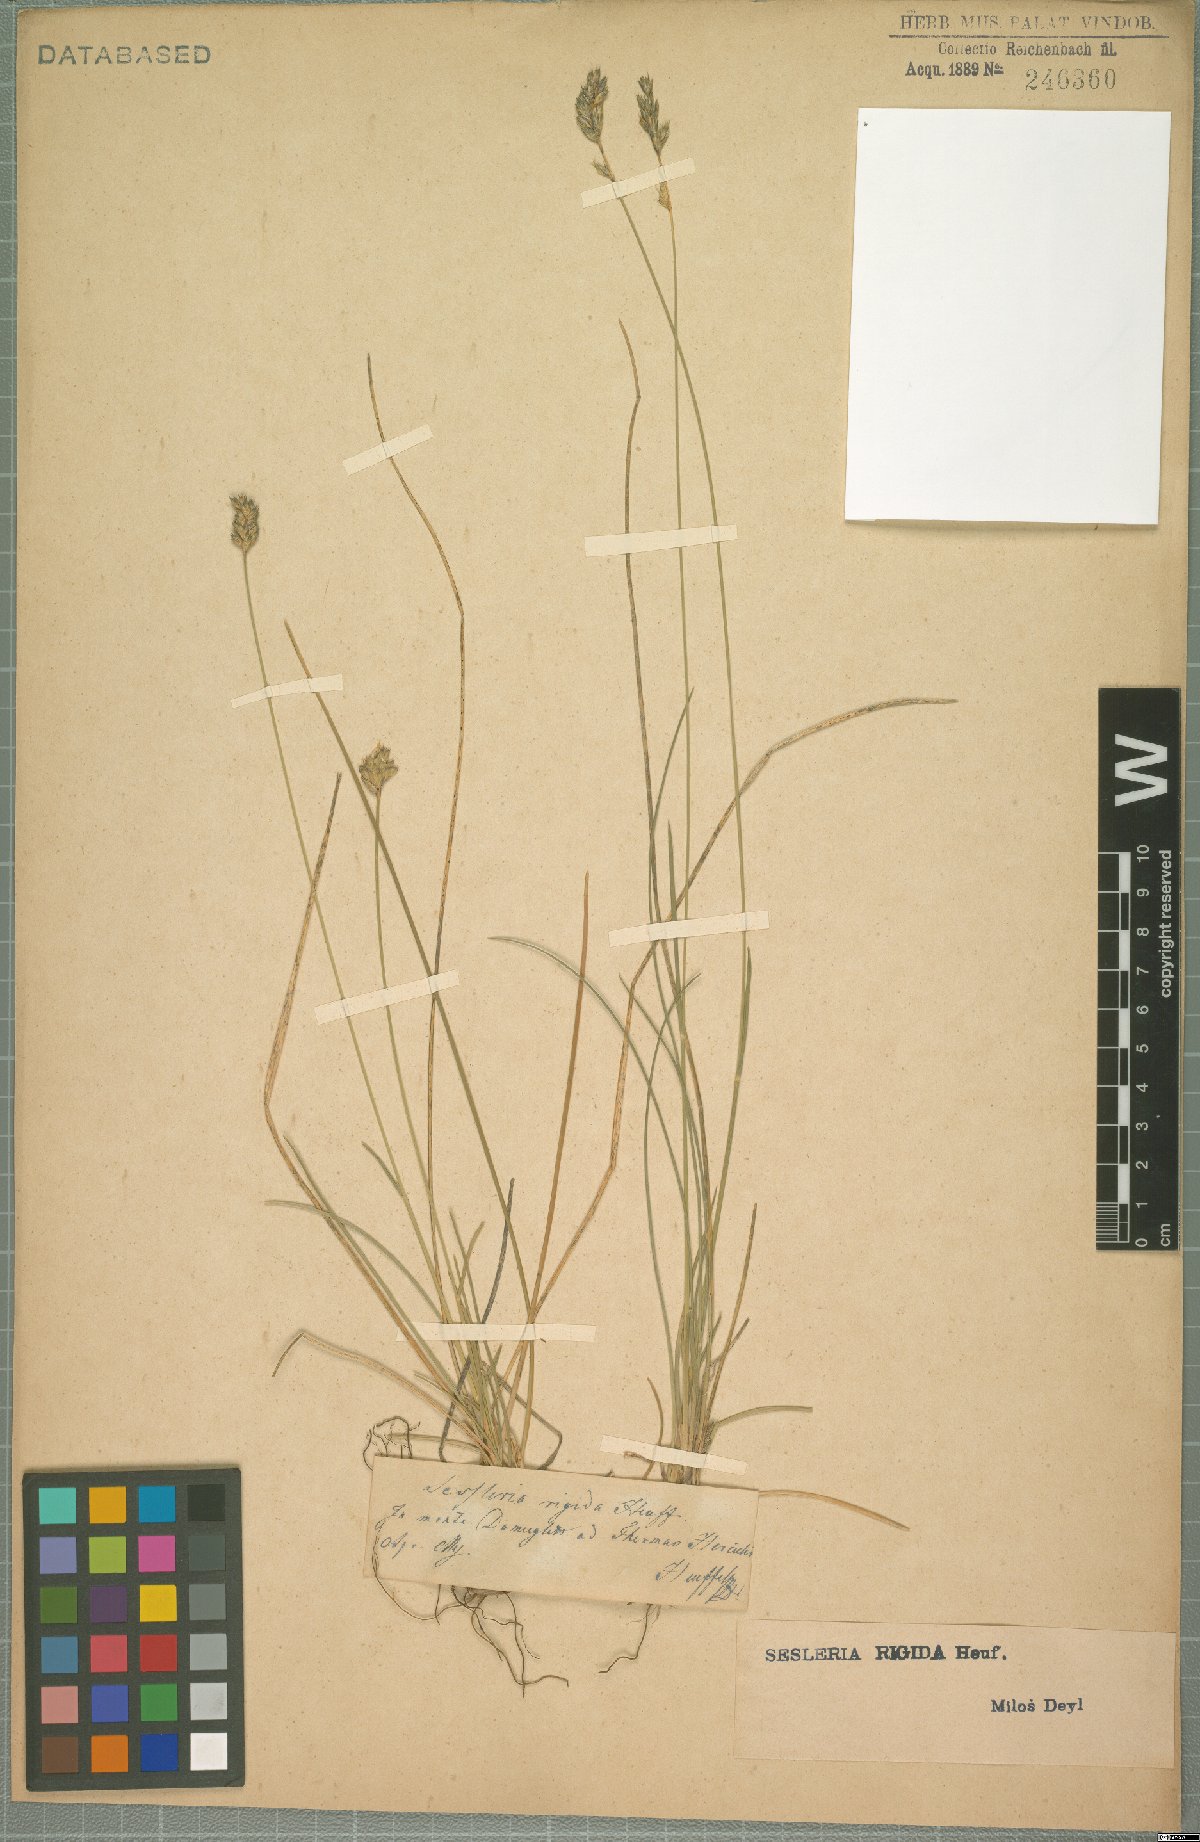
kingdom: Plantae
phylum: Tracheophyta
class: Liliopsida
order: Poales
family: Poaceae
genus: Sesleria
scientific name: Sesleria rigida
